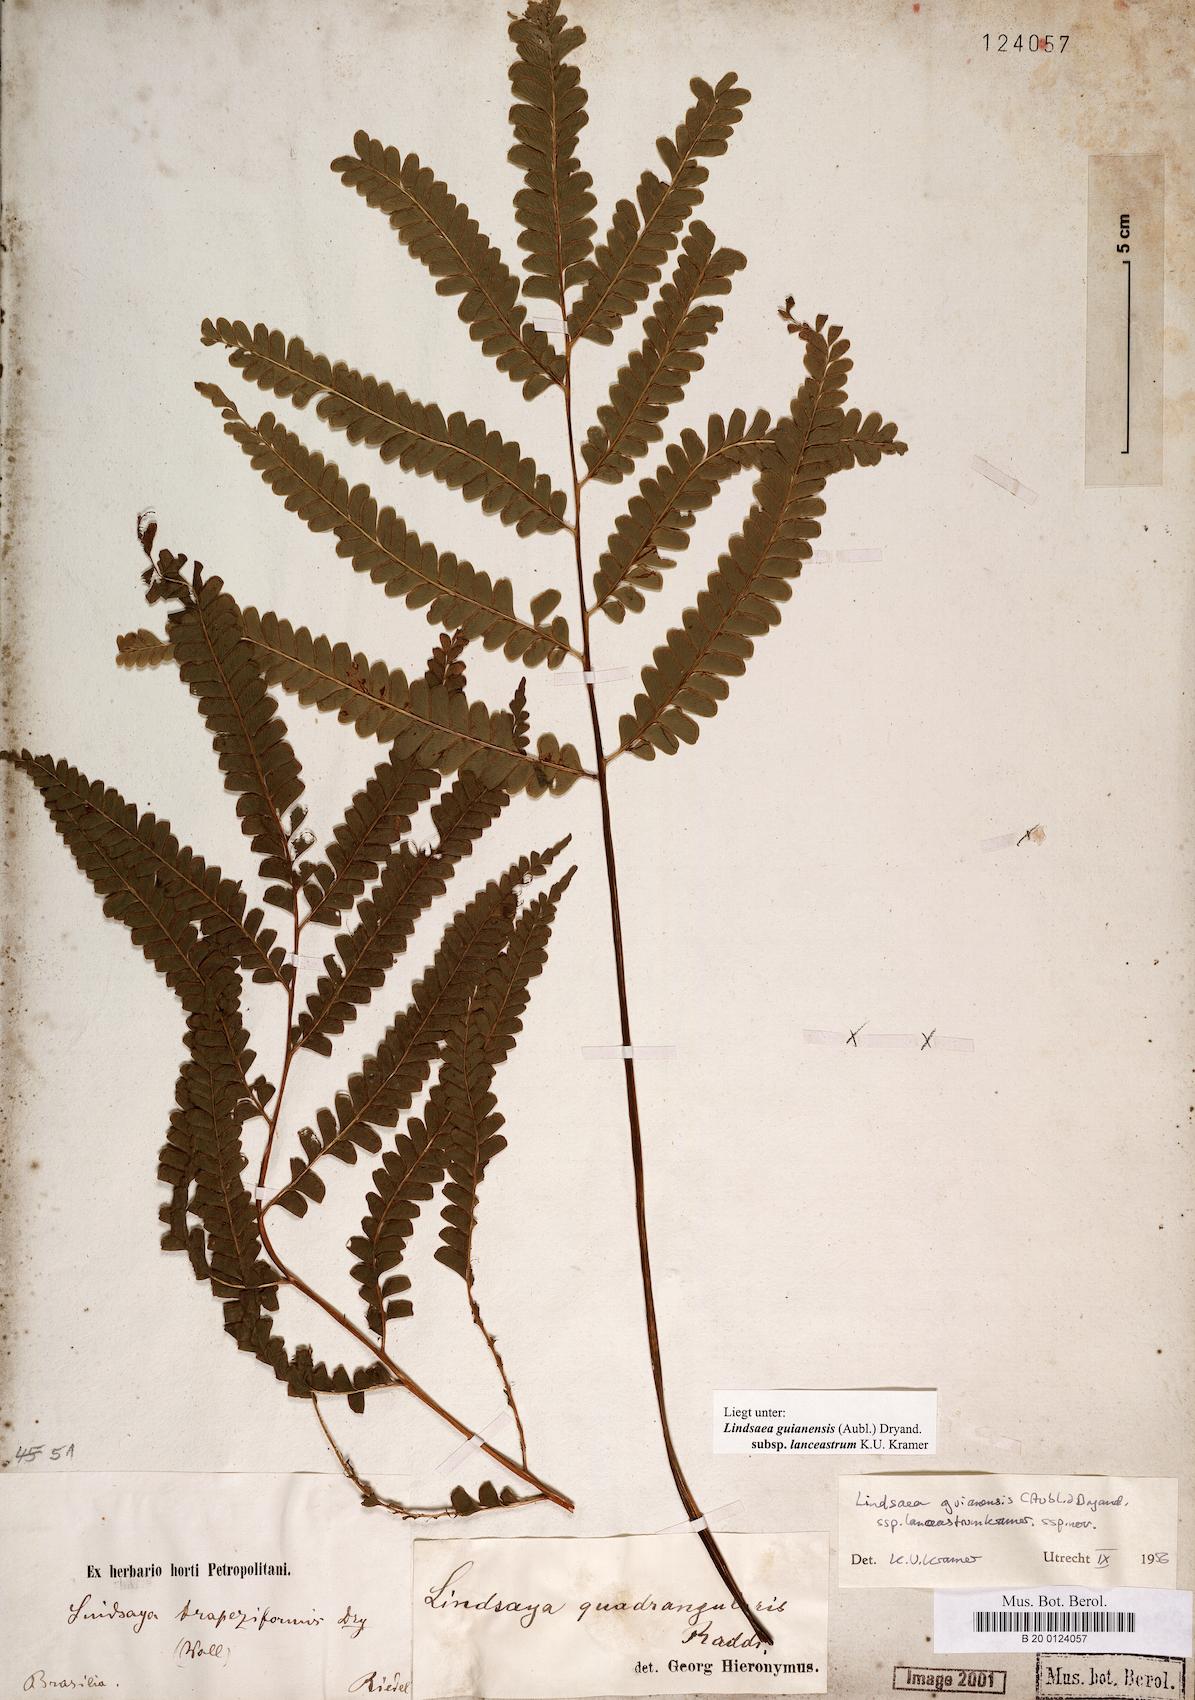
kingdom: Plantae
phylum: Tracheophyta
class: Polypodiopsida
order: Polypodiales
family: Lindsaeaceae
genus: Lindsaea
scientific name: Lindsaea guianensis
